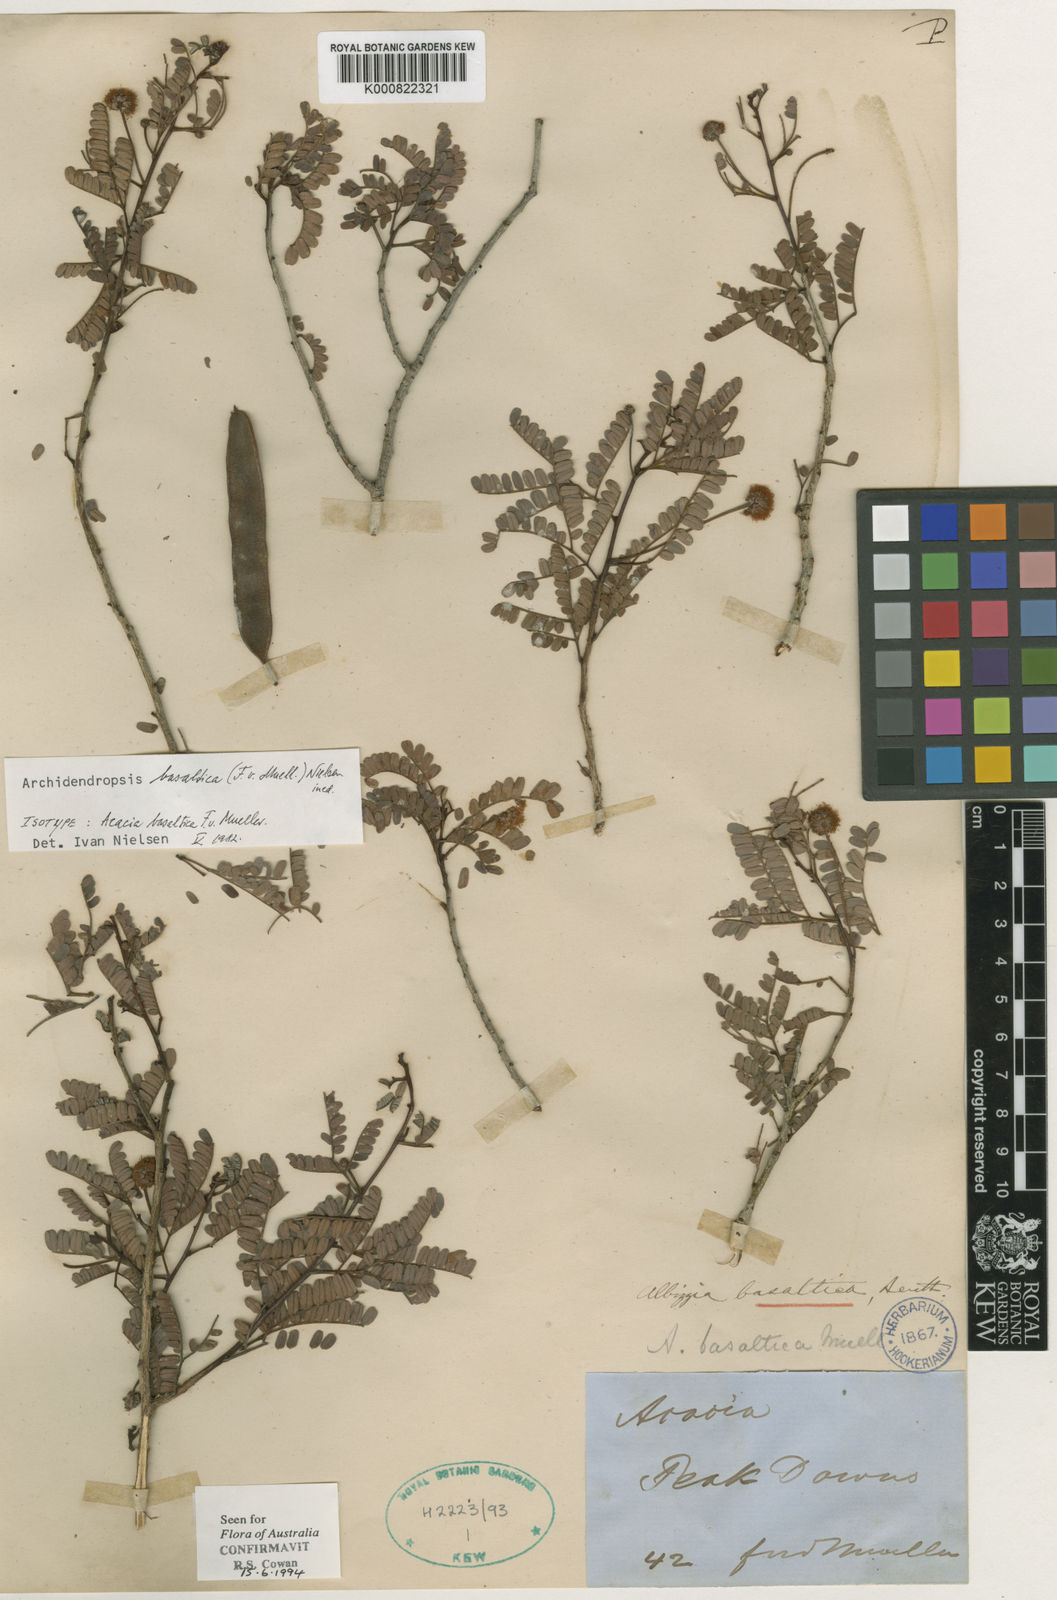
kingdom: Plantae
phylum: Tracheophyta
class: Magnoliopsida
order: Fabales
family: Fabaceae
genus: Archidendropsis
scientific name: Archidendropsis basaltica
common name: Red lancewood
